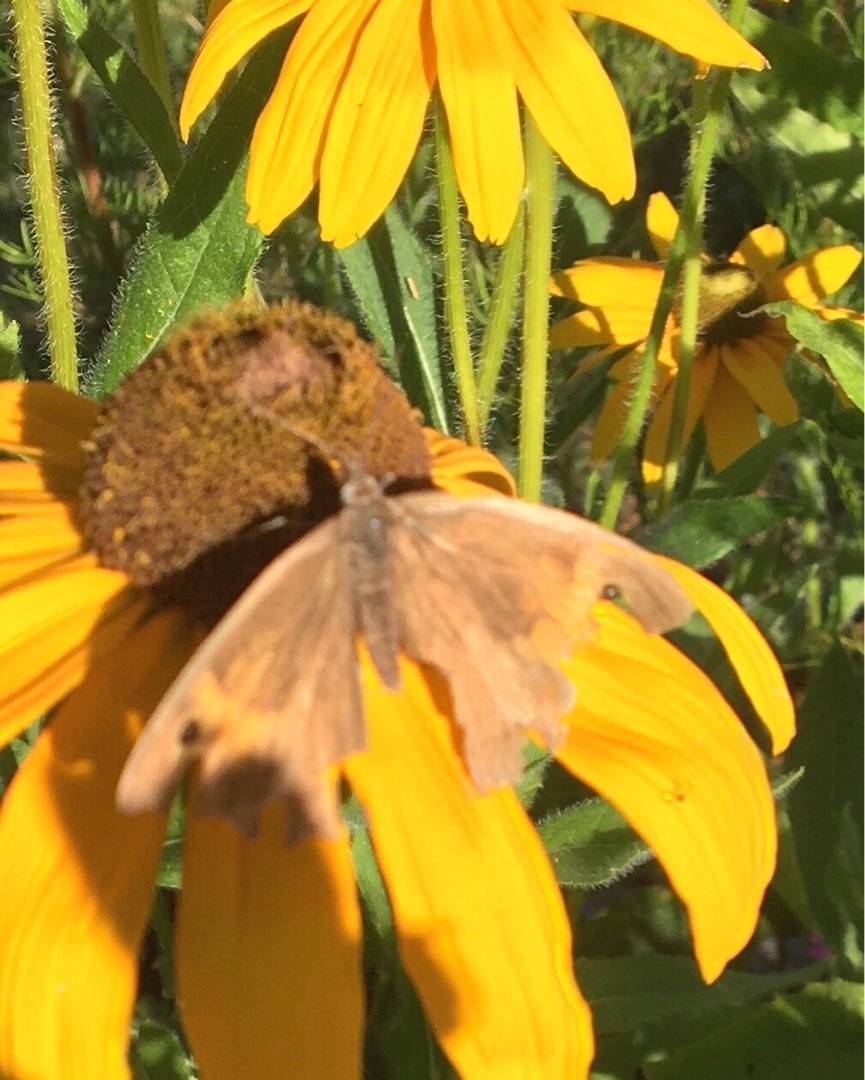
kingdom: Animalia
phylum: Arthropoda
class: Insecta
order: Lepidoptera
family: Nymphalidae
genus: Maniola
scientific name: Maniola jurtina
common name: Græsrandøje
